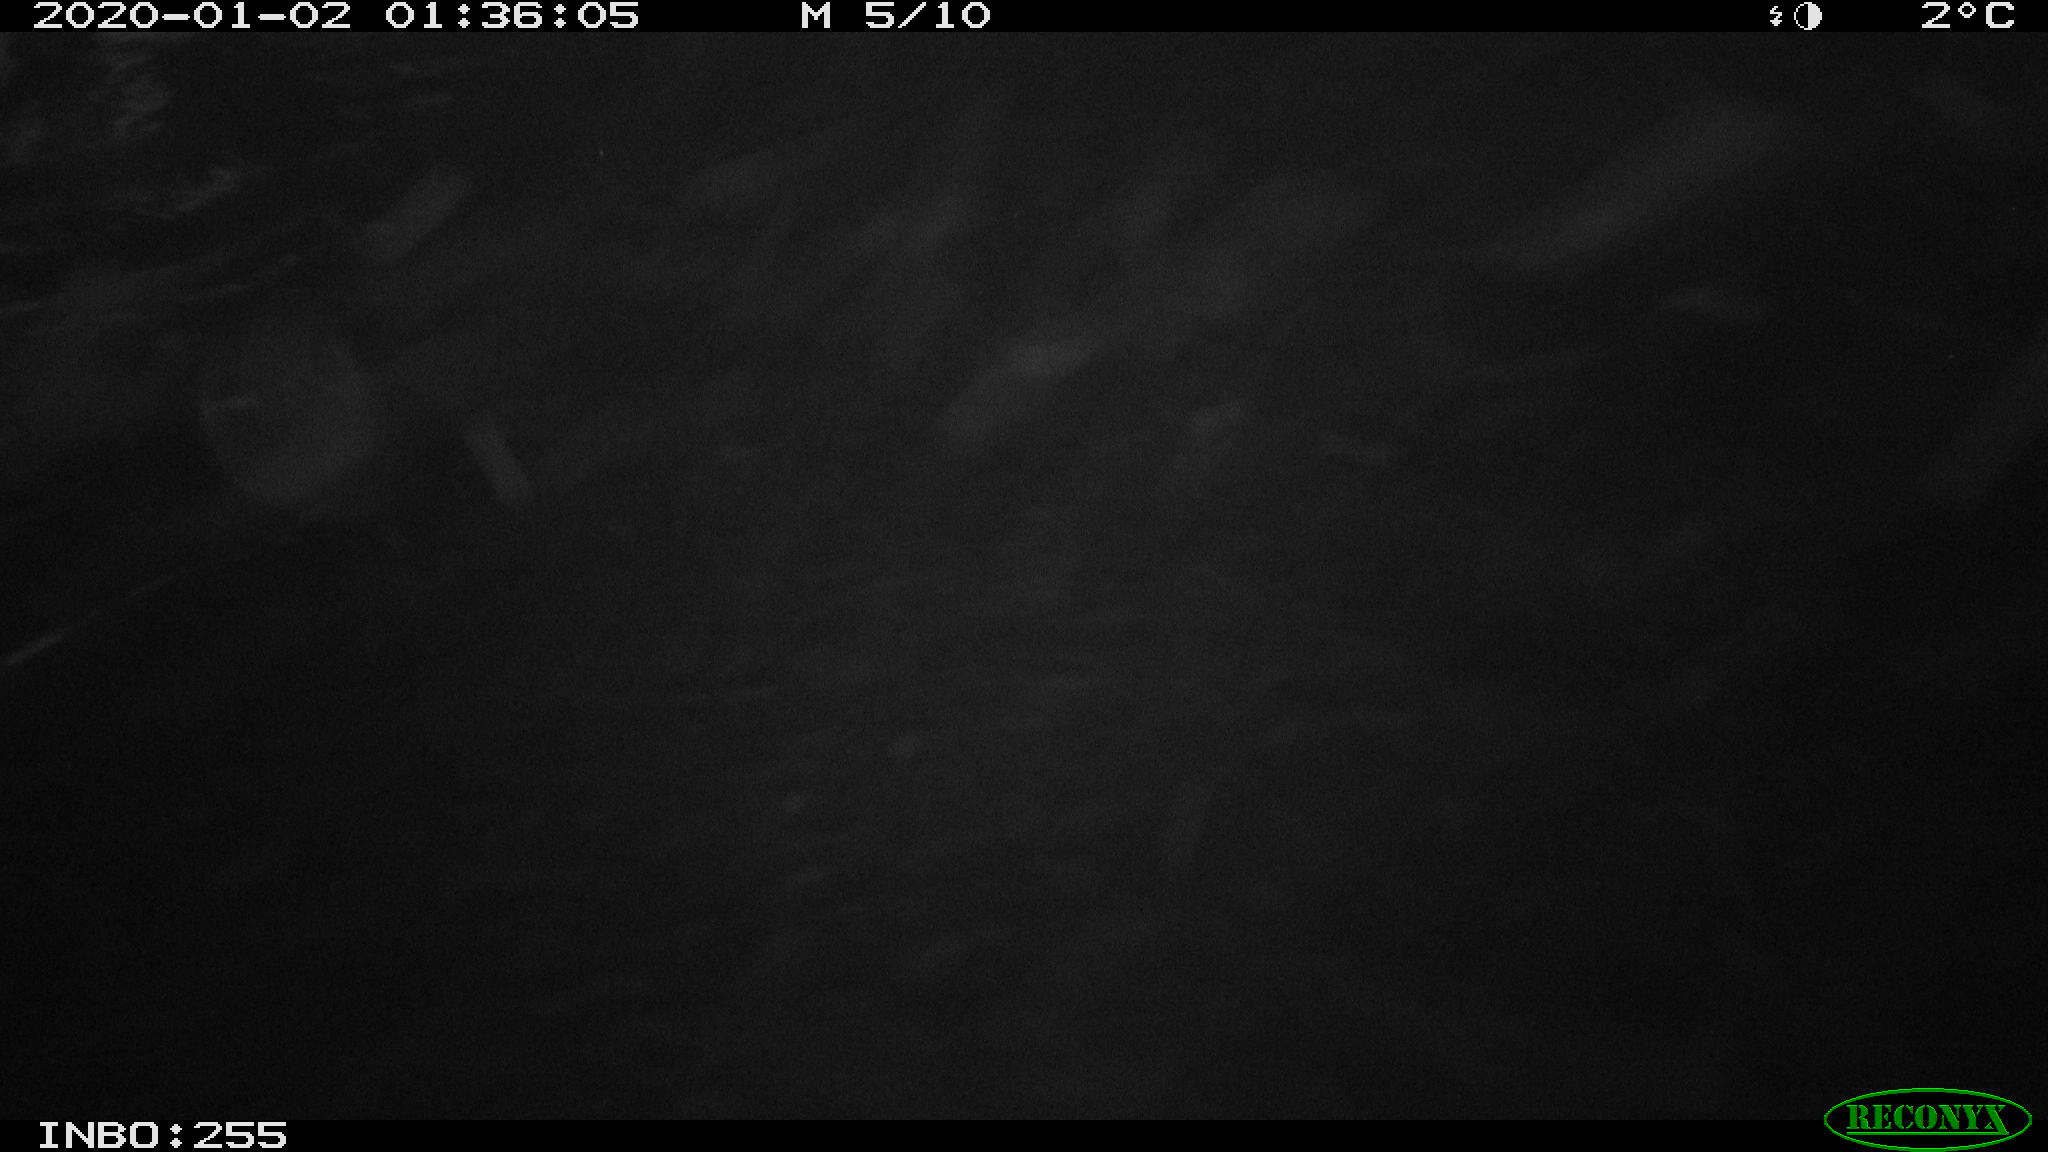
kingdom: Animalia
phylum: Chordata
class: Aves
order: Anseriformes
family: Anatidae
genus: Anas
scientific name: Anas platyrhynchos
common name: Mallard
